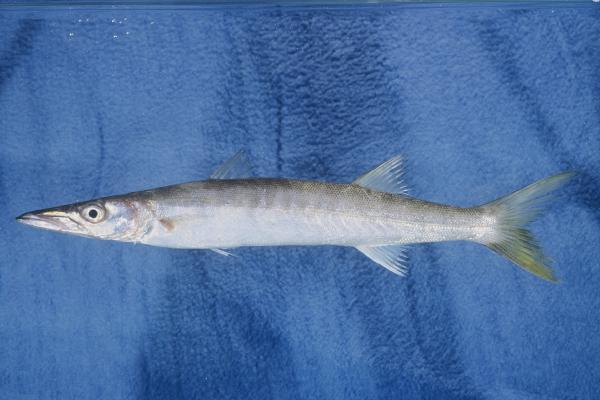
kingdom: Animalia
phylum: Chordata
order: Perciformes
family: Sphyraenidae
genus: Sphyraena
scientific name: Sphyraena putnamae
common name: Sawtooth barracuda
